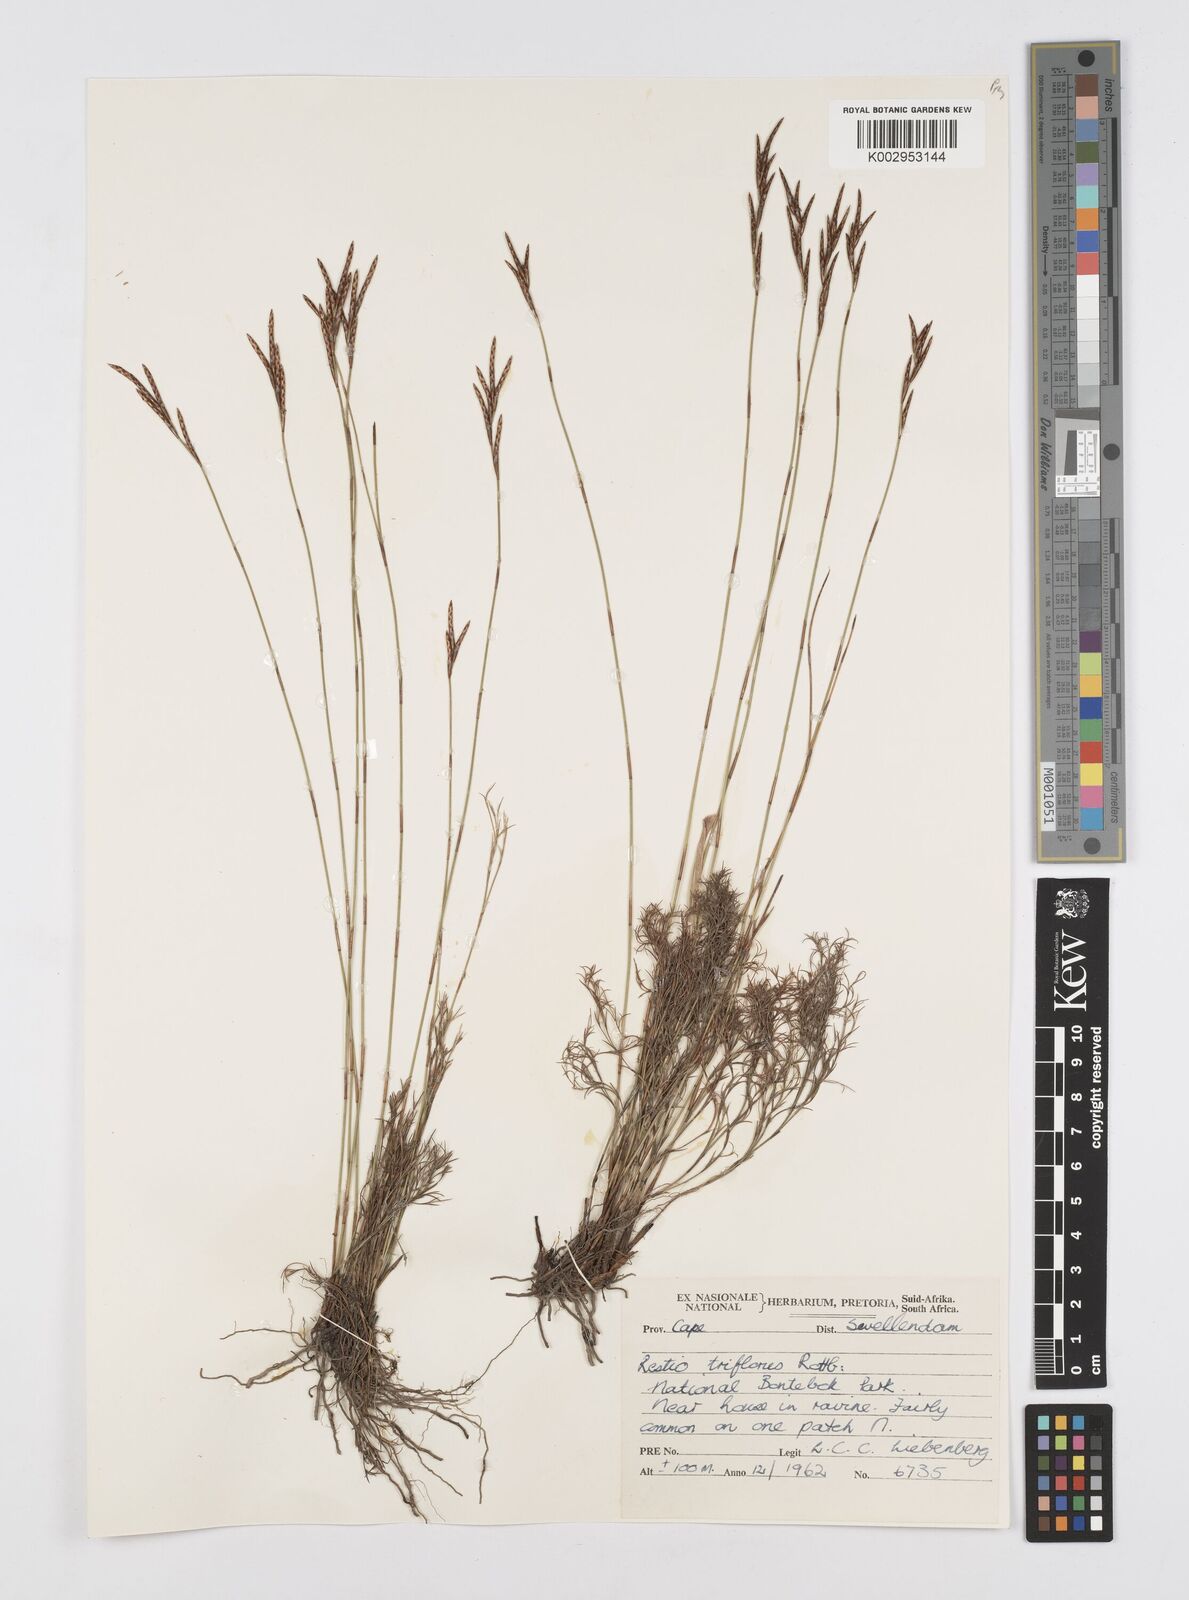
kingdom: Plantae
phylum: Tracheophyta
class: Liliopsida
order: Poales
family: Restionaceae
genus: Restio
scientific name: Restio triflorus
